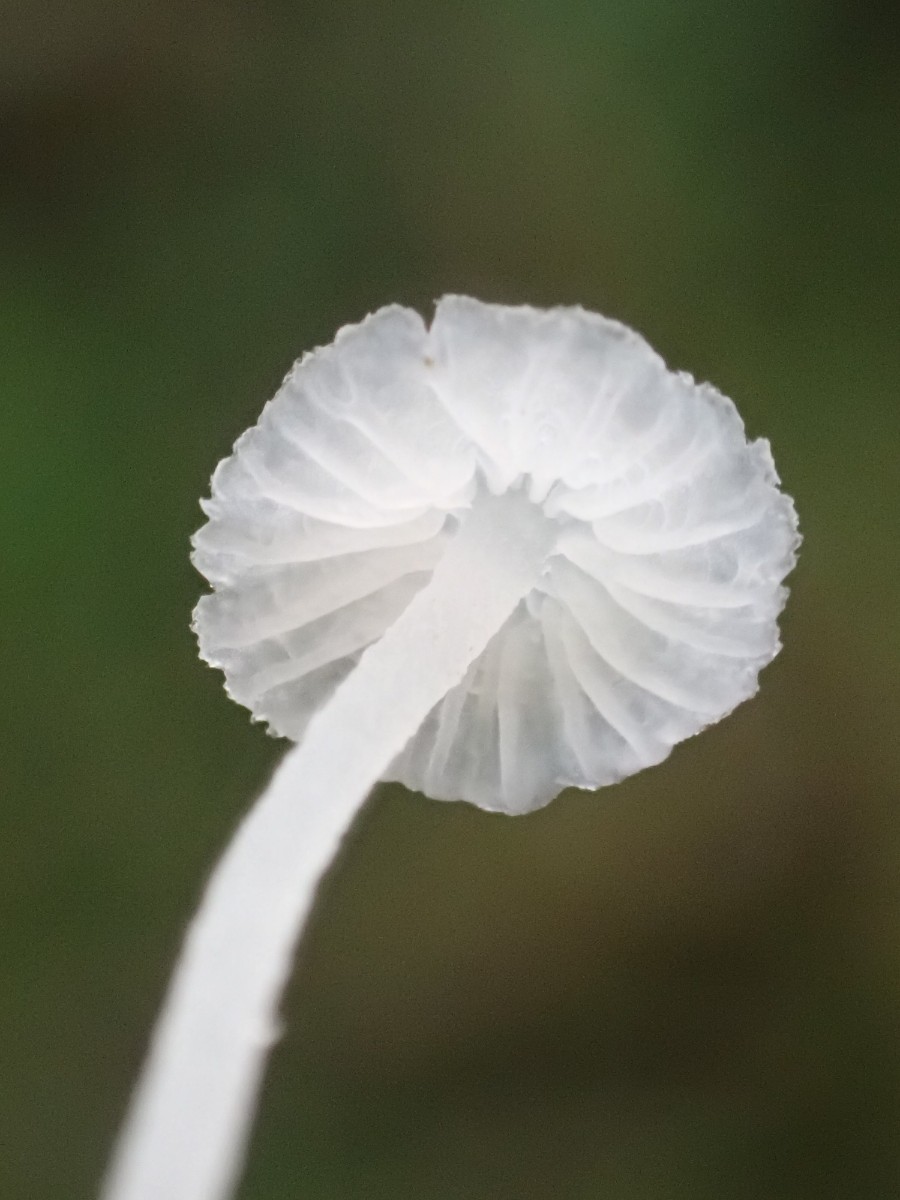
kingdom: Fungi
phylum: Basidiomycota
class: Agaricomycetes
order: Agaricales
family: Tricholomataceae
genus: Delicatula
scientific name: Delicatula integrella
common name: slørhuesvamp
